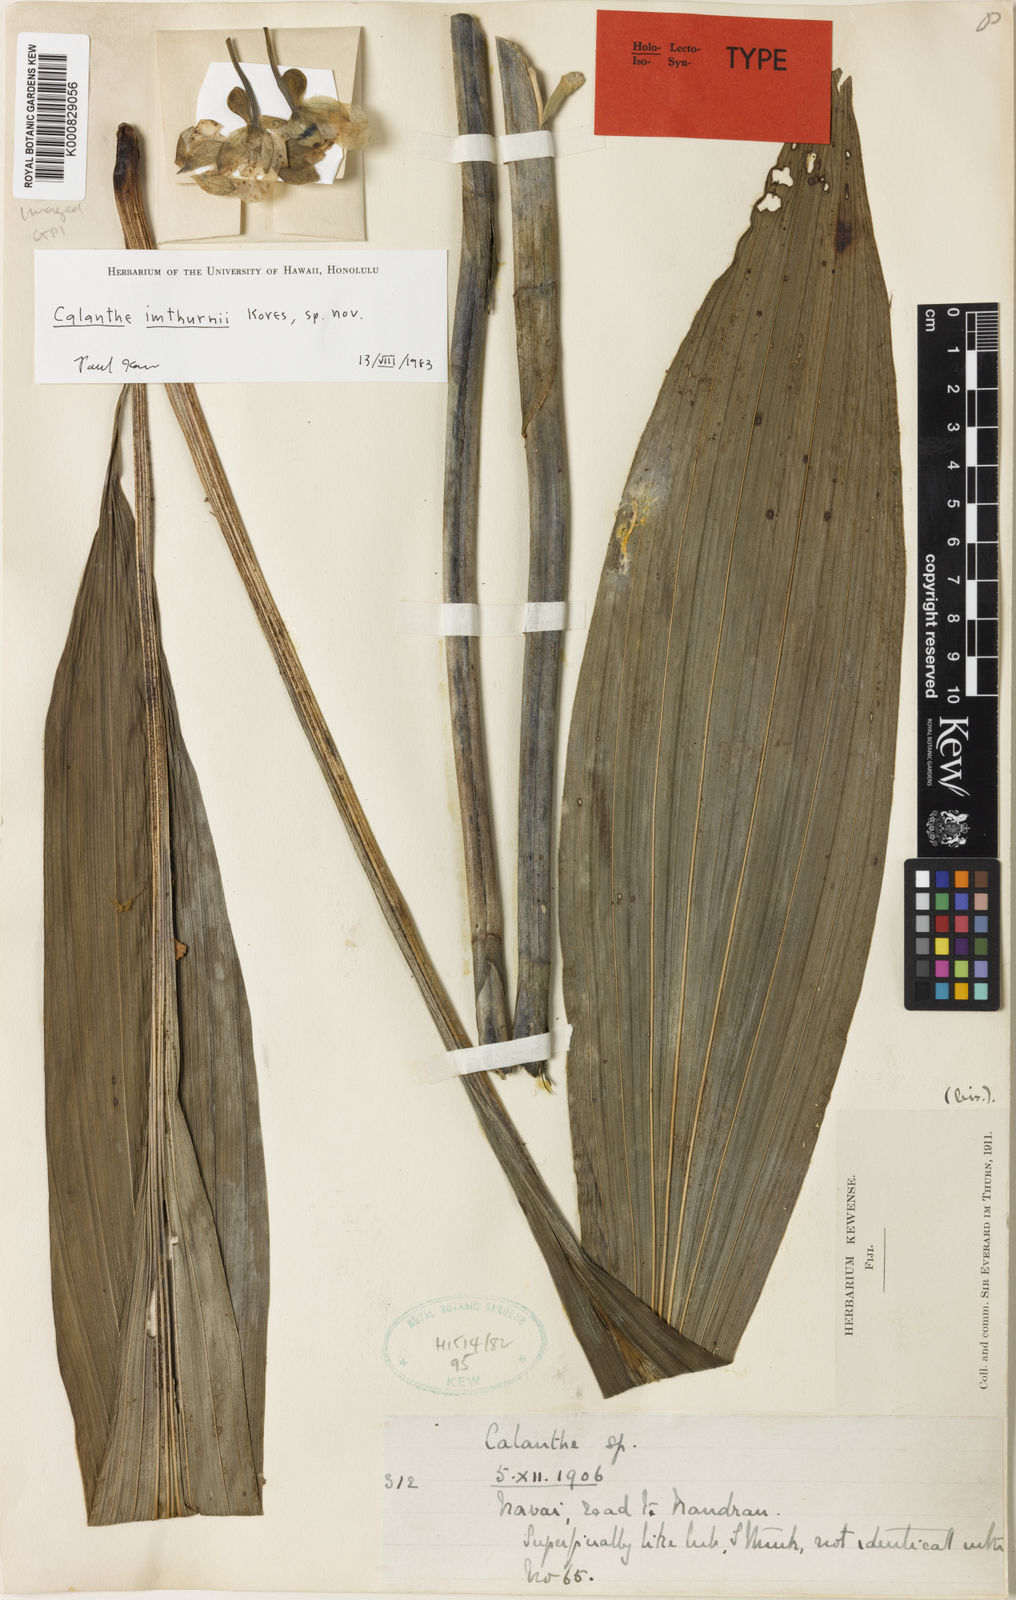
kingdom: Plantae
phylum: Tracheophyta
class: Liliopsida
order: Asparagales
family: Orchidaceae
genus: Calanthe
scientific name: Calanthe imthurnii
